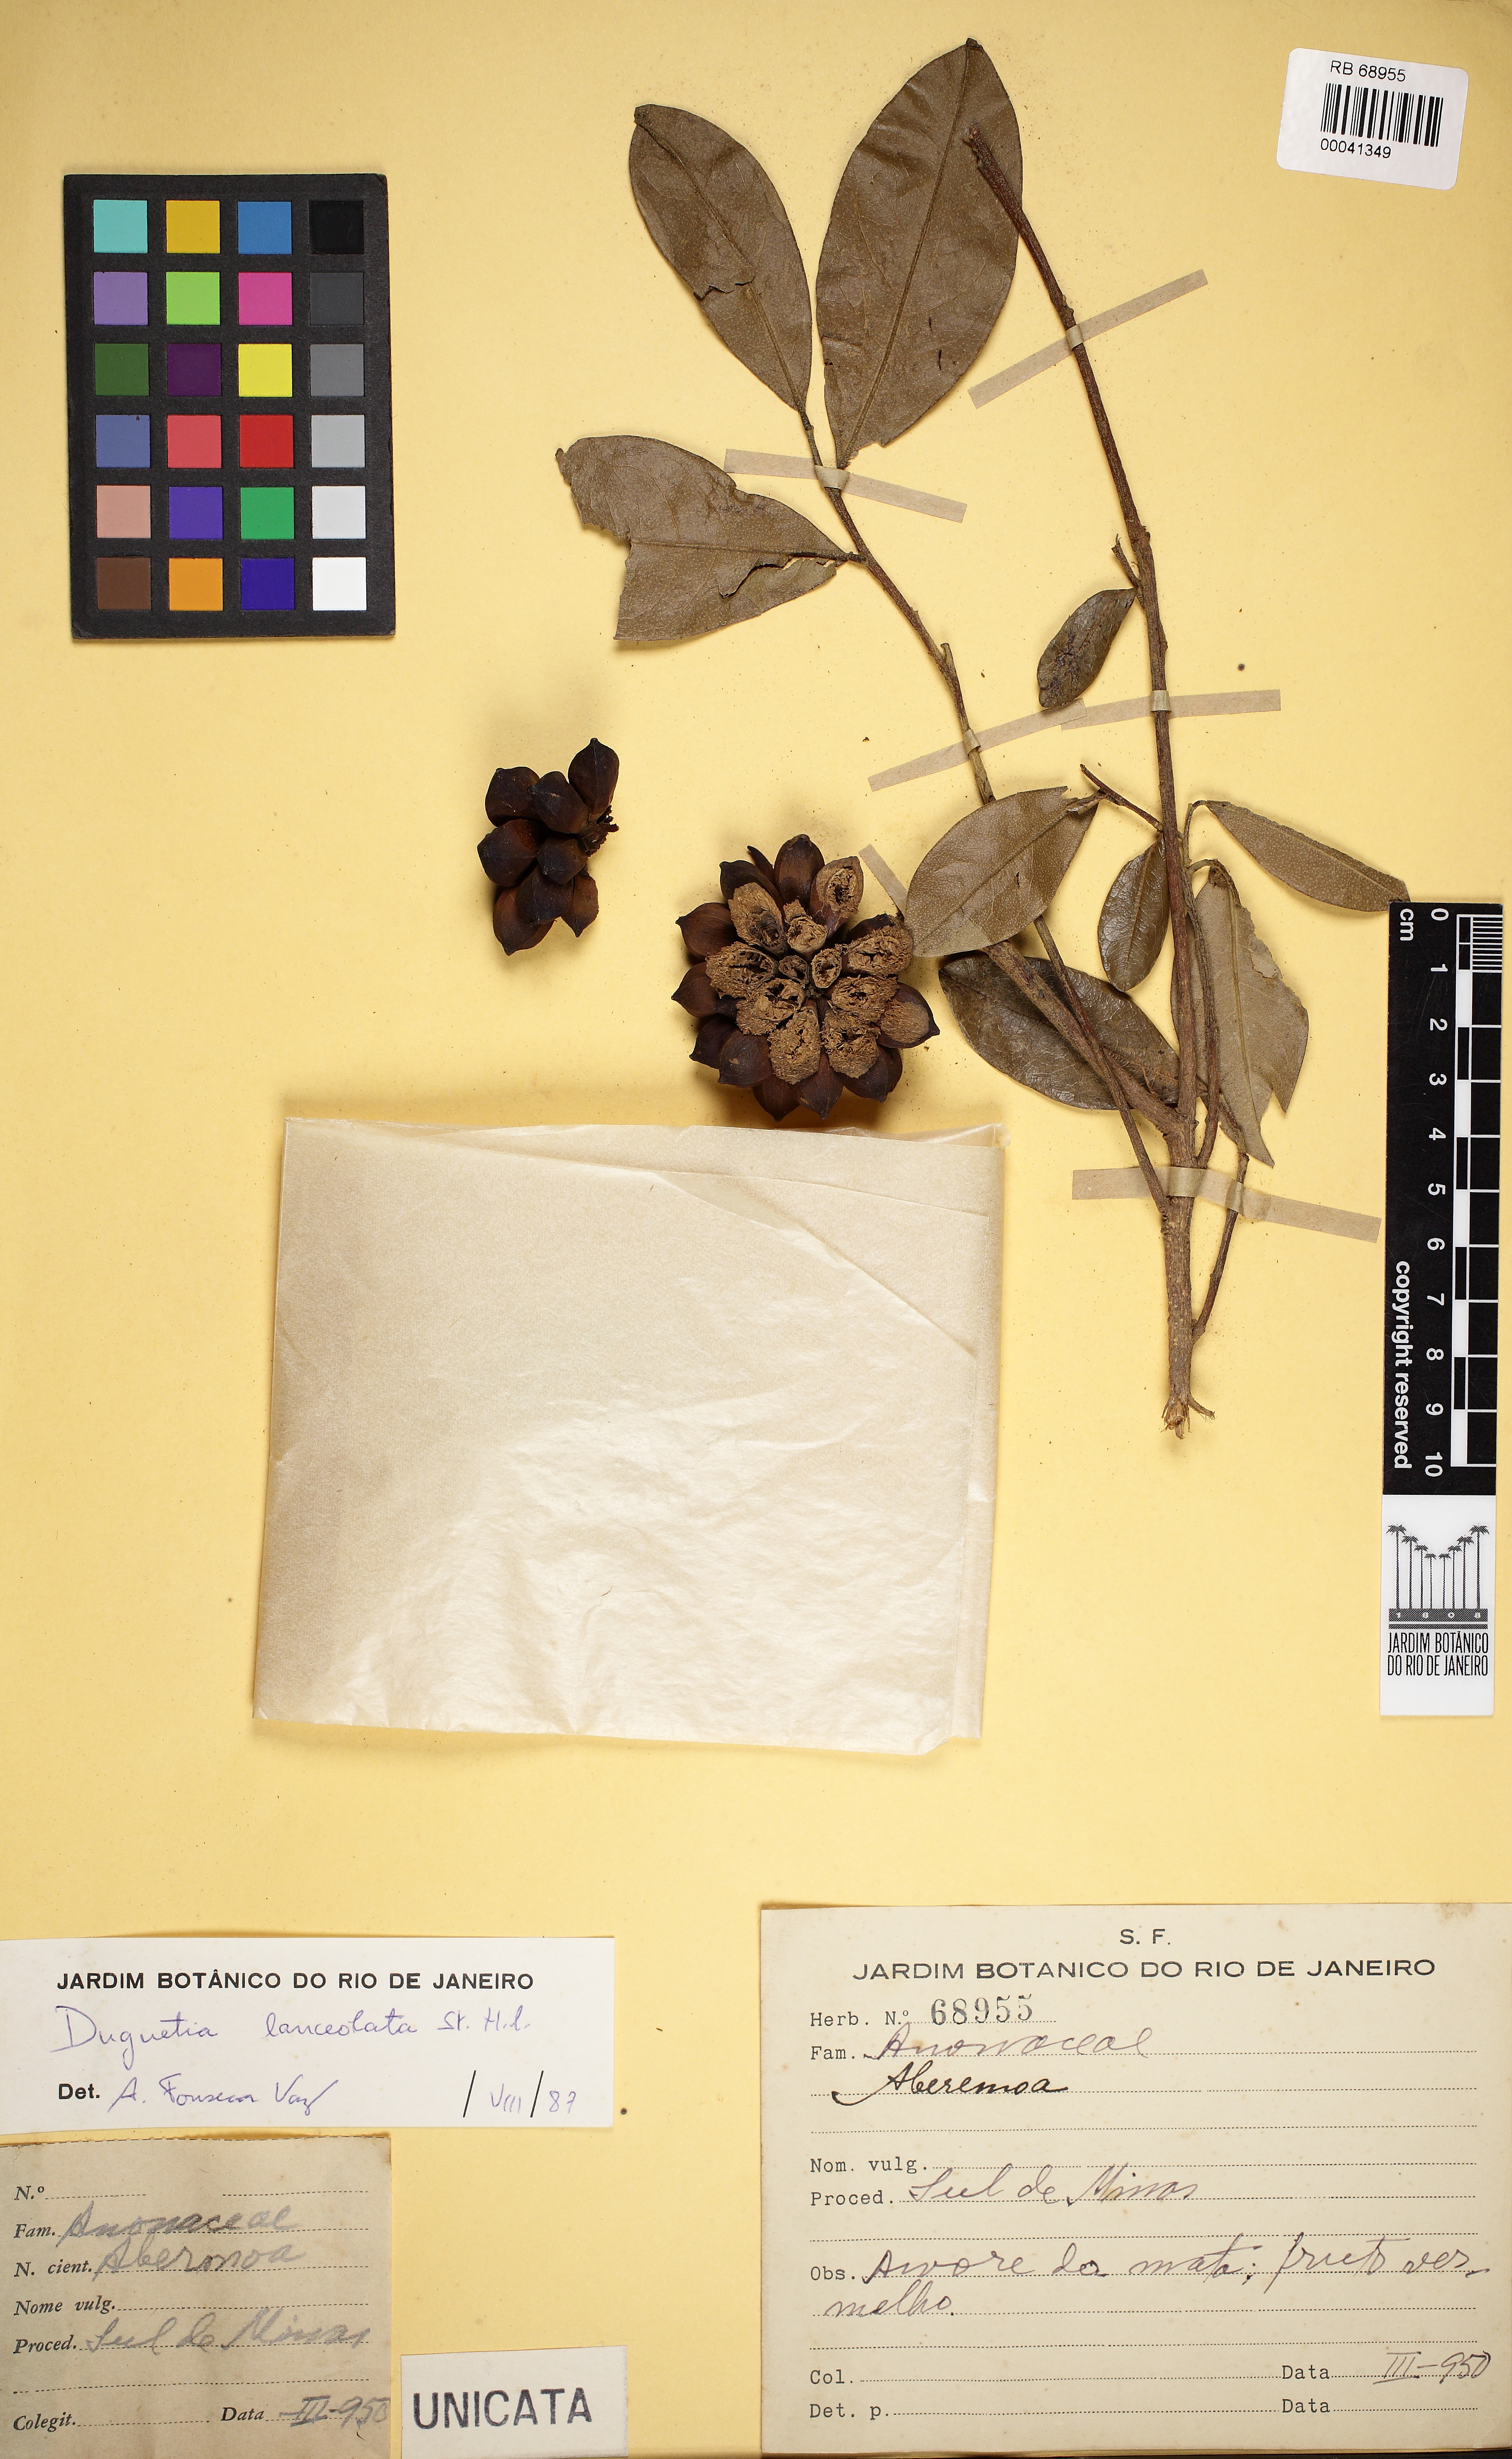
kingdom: Plantae
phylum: Tracheophyta
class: Magnoliopsida
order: Magnoliales
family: Annonaceae
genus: Duguetia
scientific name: Duguetia lanceolata
